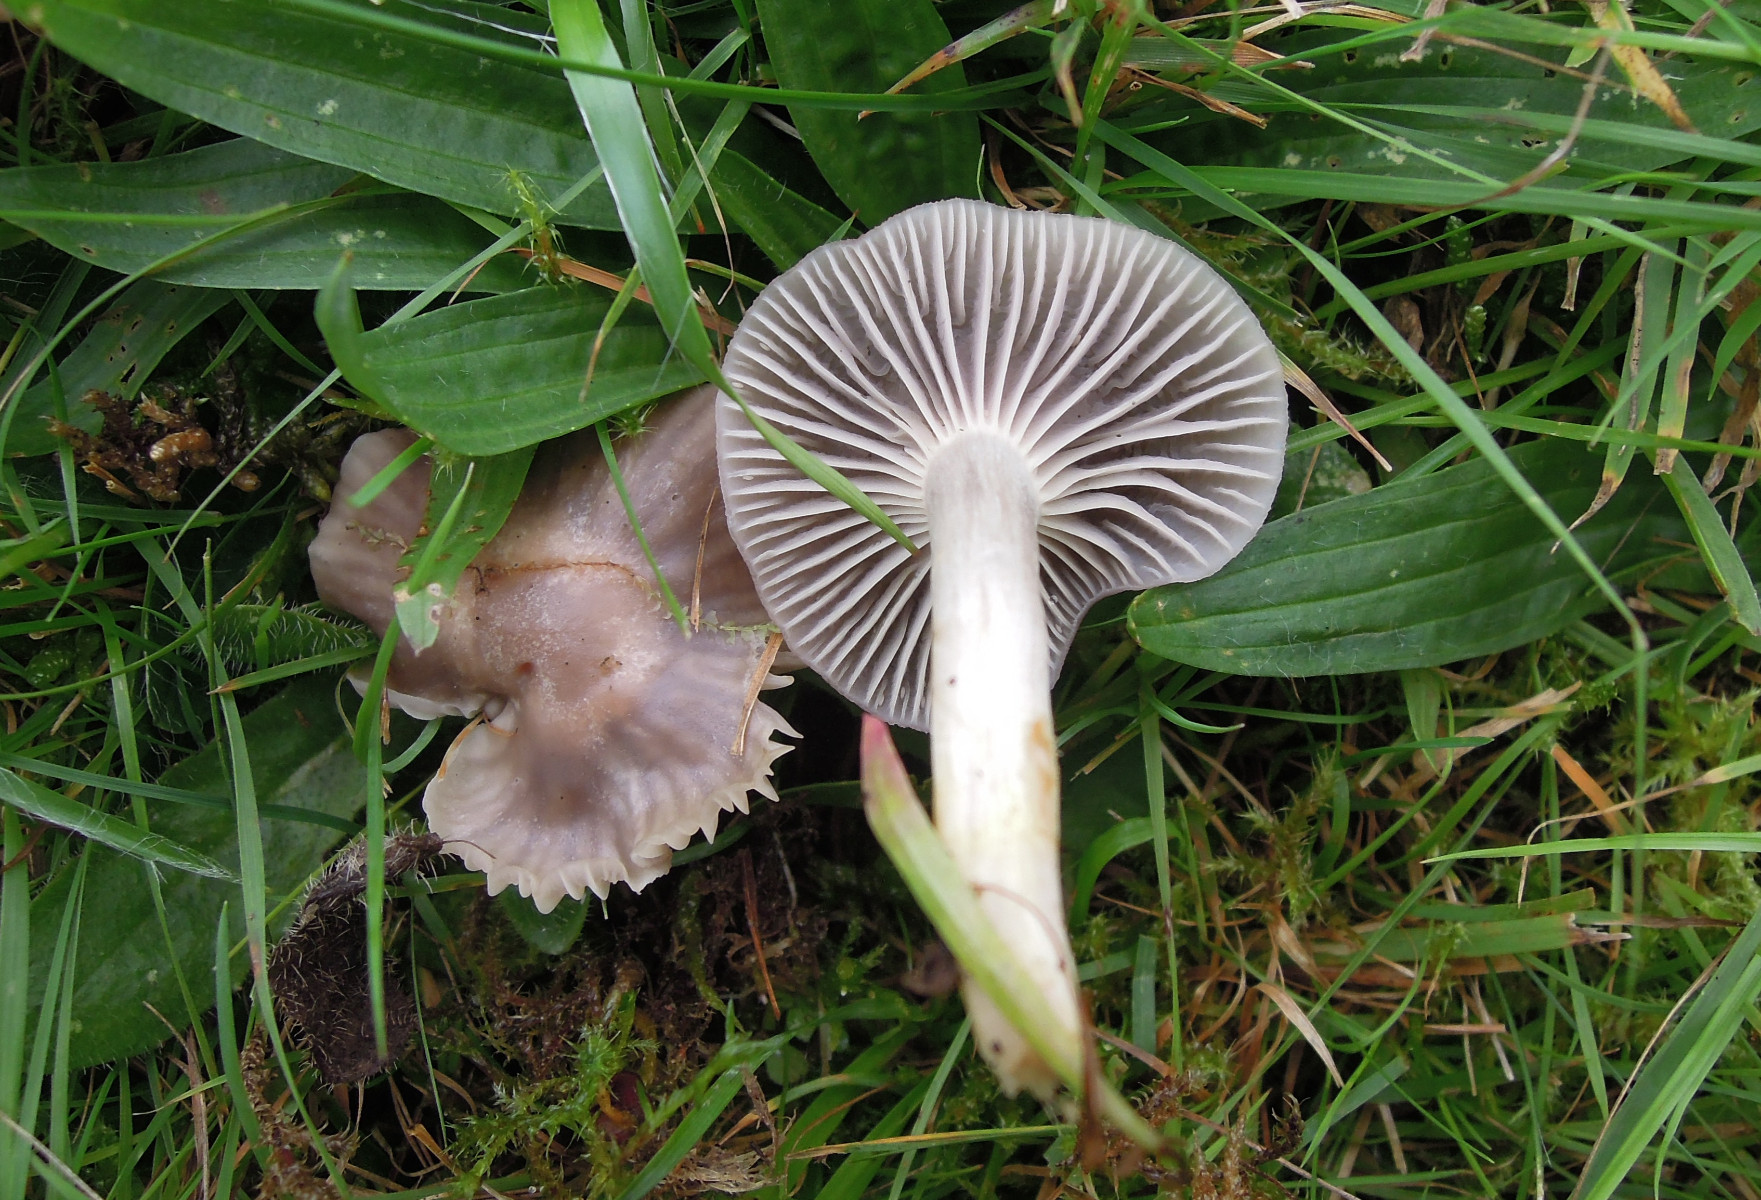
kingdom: Fungi
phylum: Basidiomycota
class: Agaricomycetes
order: Agaricales
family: Hygrophoraceae
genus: Cuphophyllus
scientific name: Cuphophyllus flavipes
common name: gulfodet vokshat
